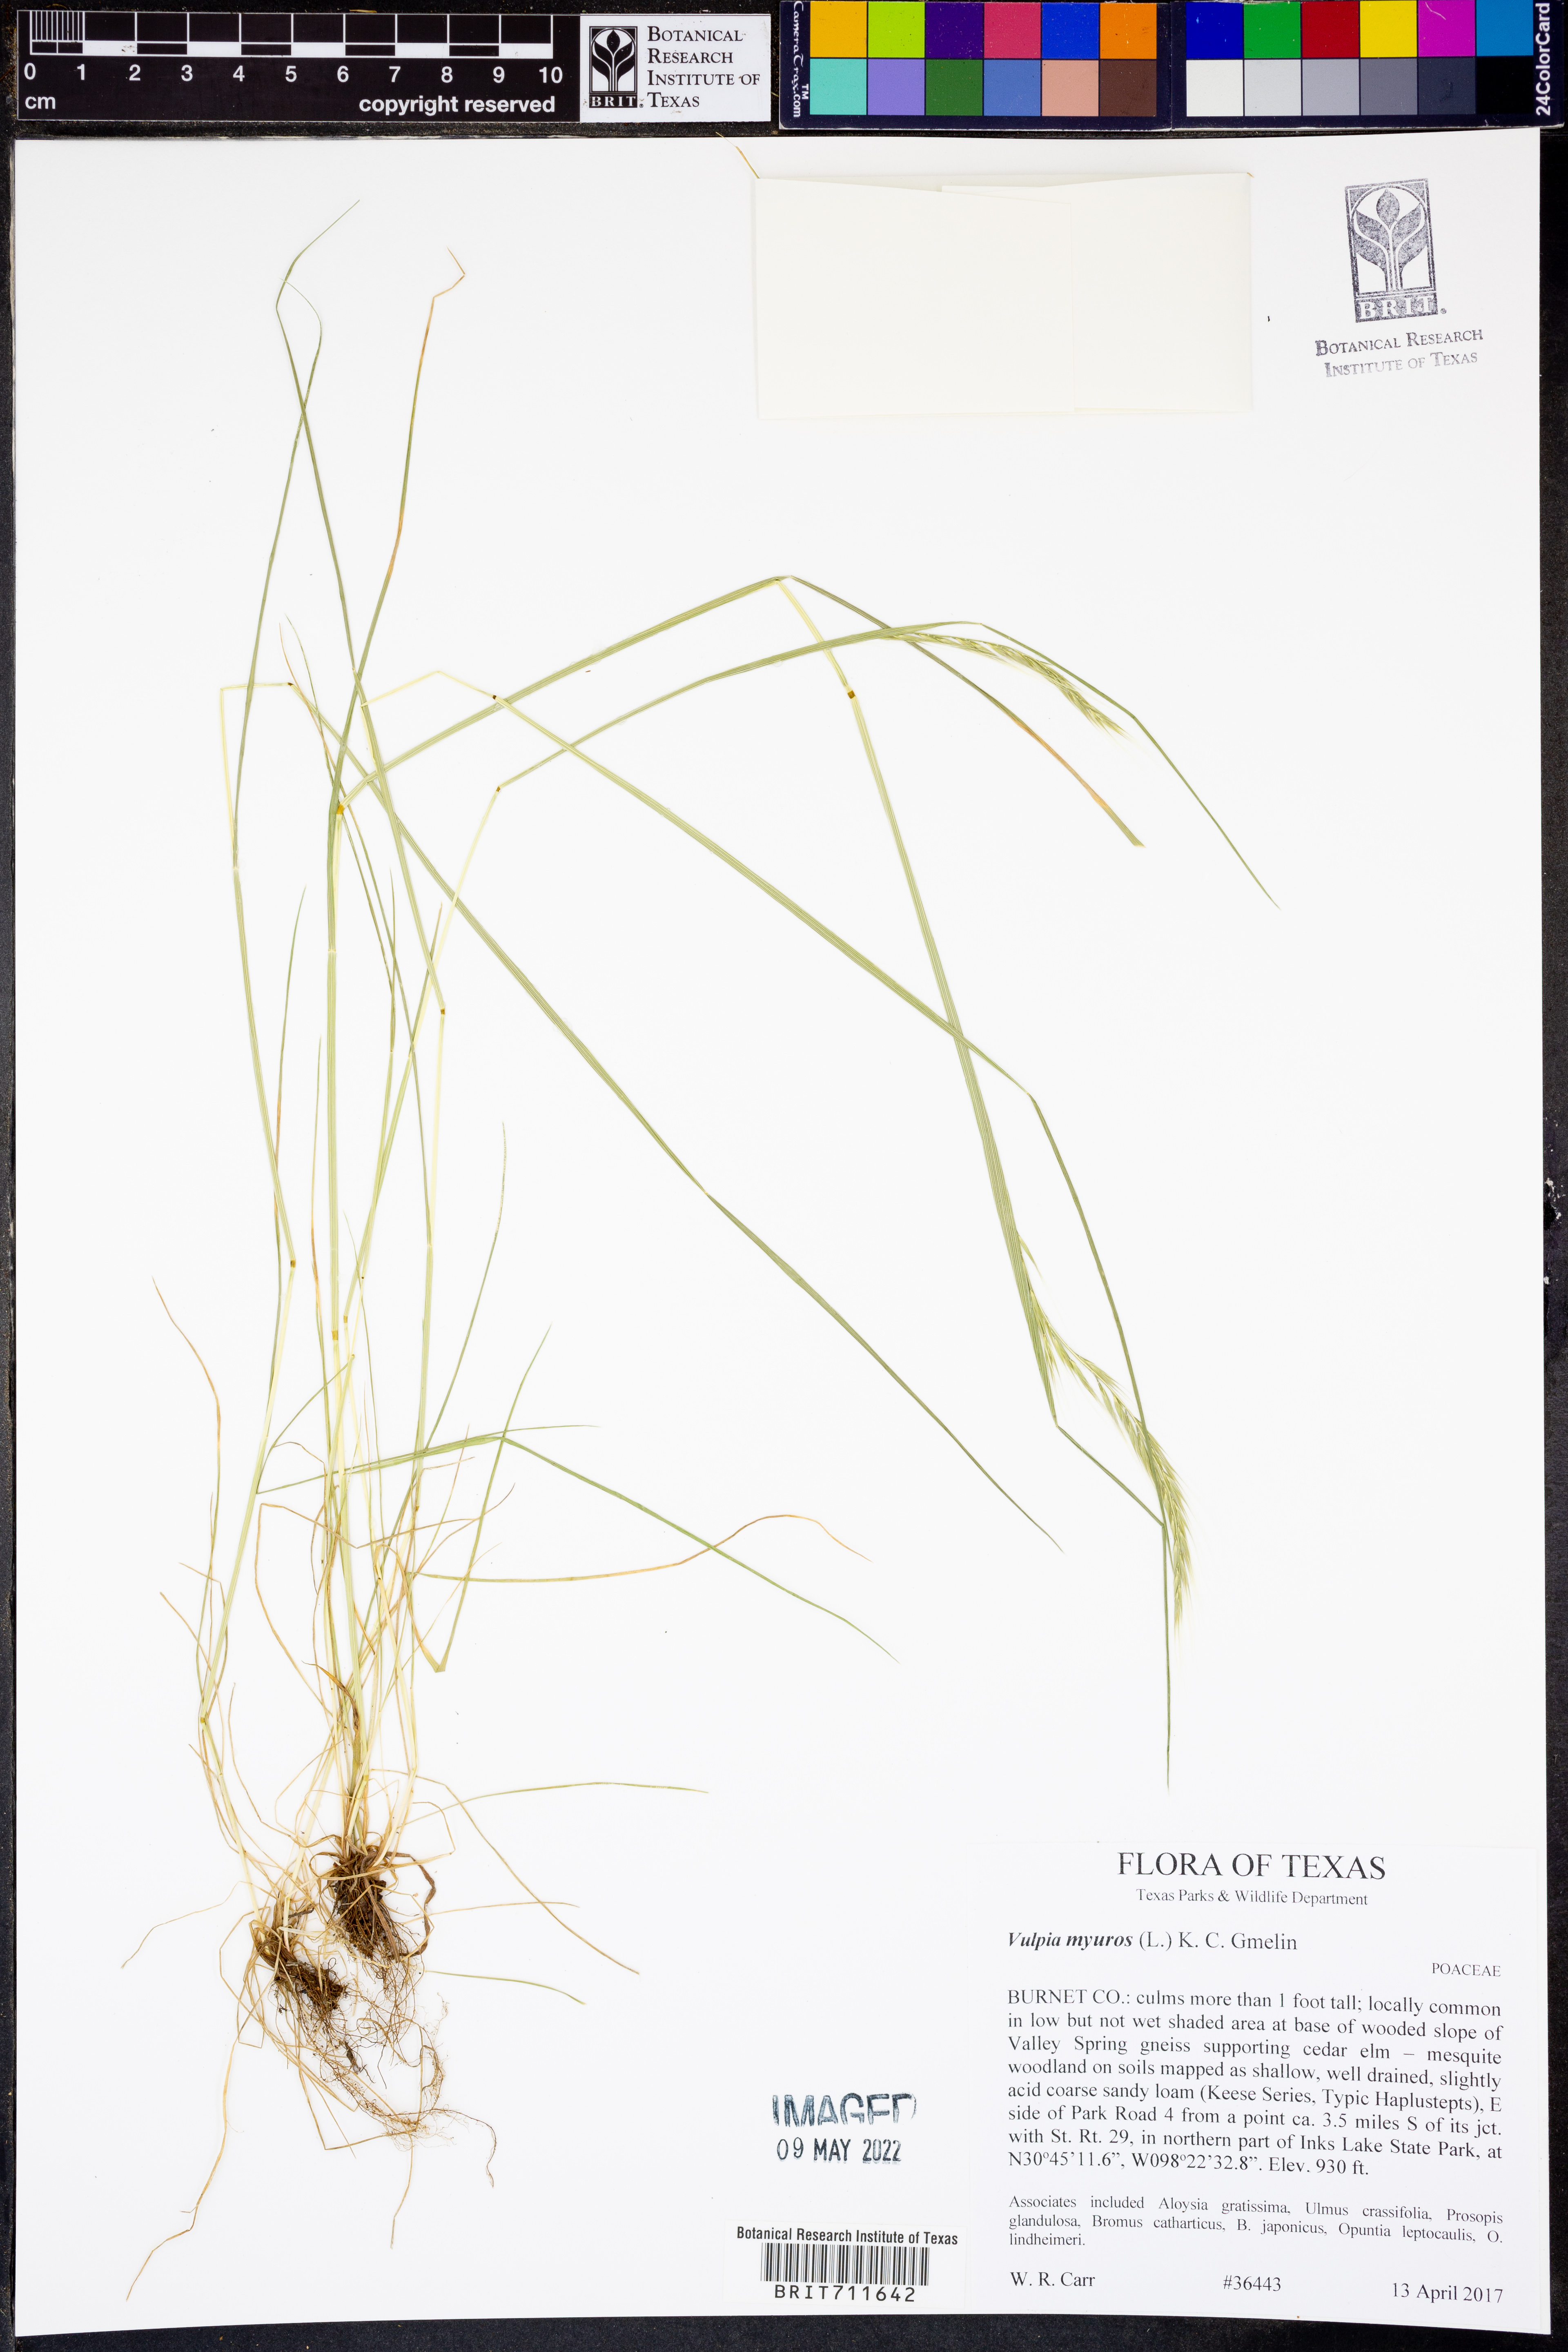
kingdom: Plantae
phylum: Tracheophyta
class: Liliopsida
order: Poales
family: Poaceae
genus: Festuca
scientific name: Festuca myuros
